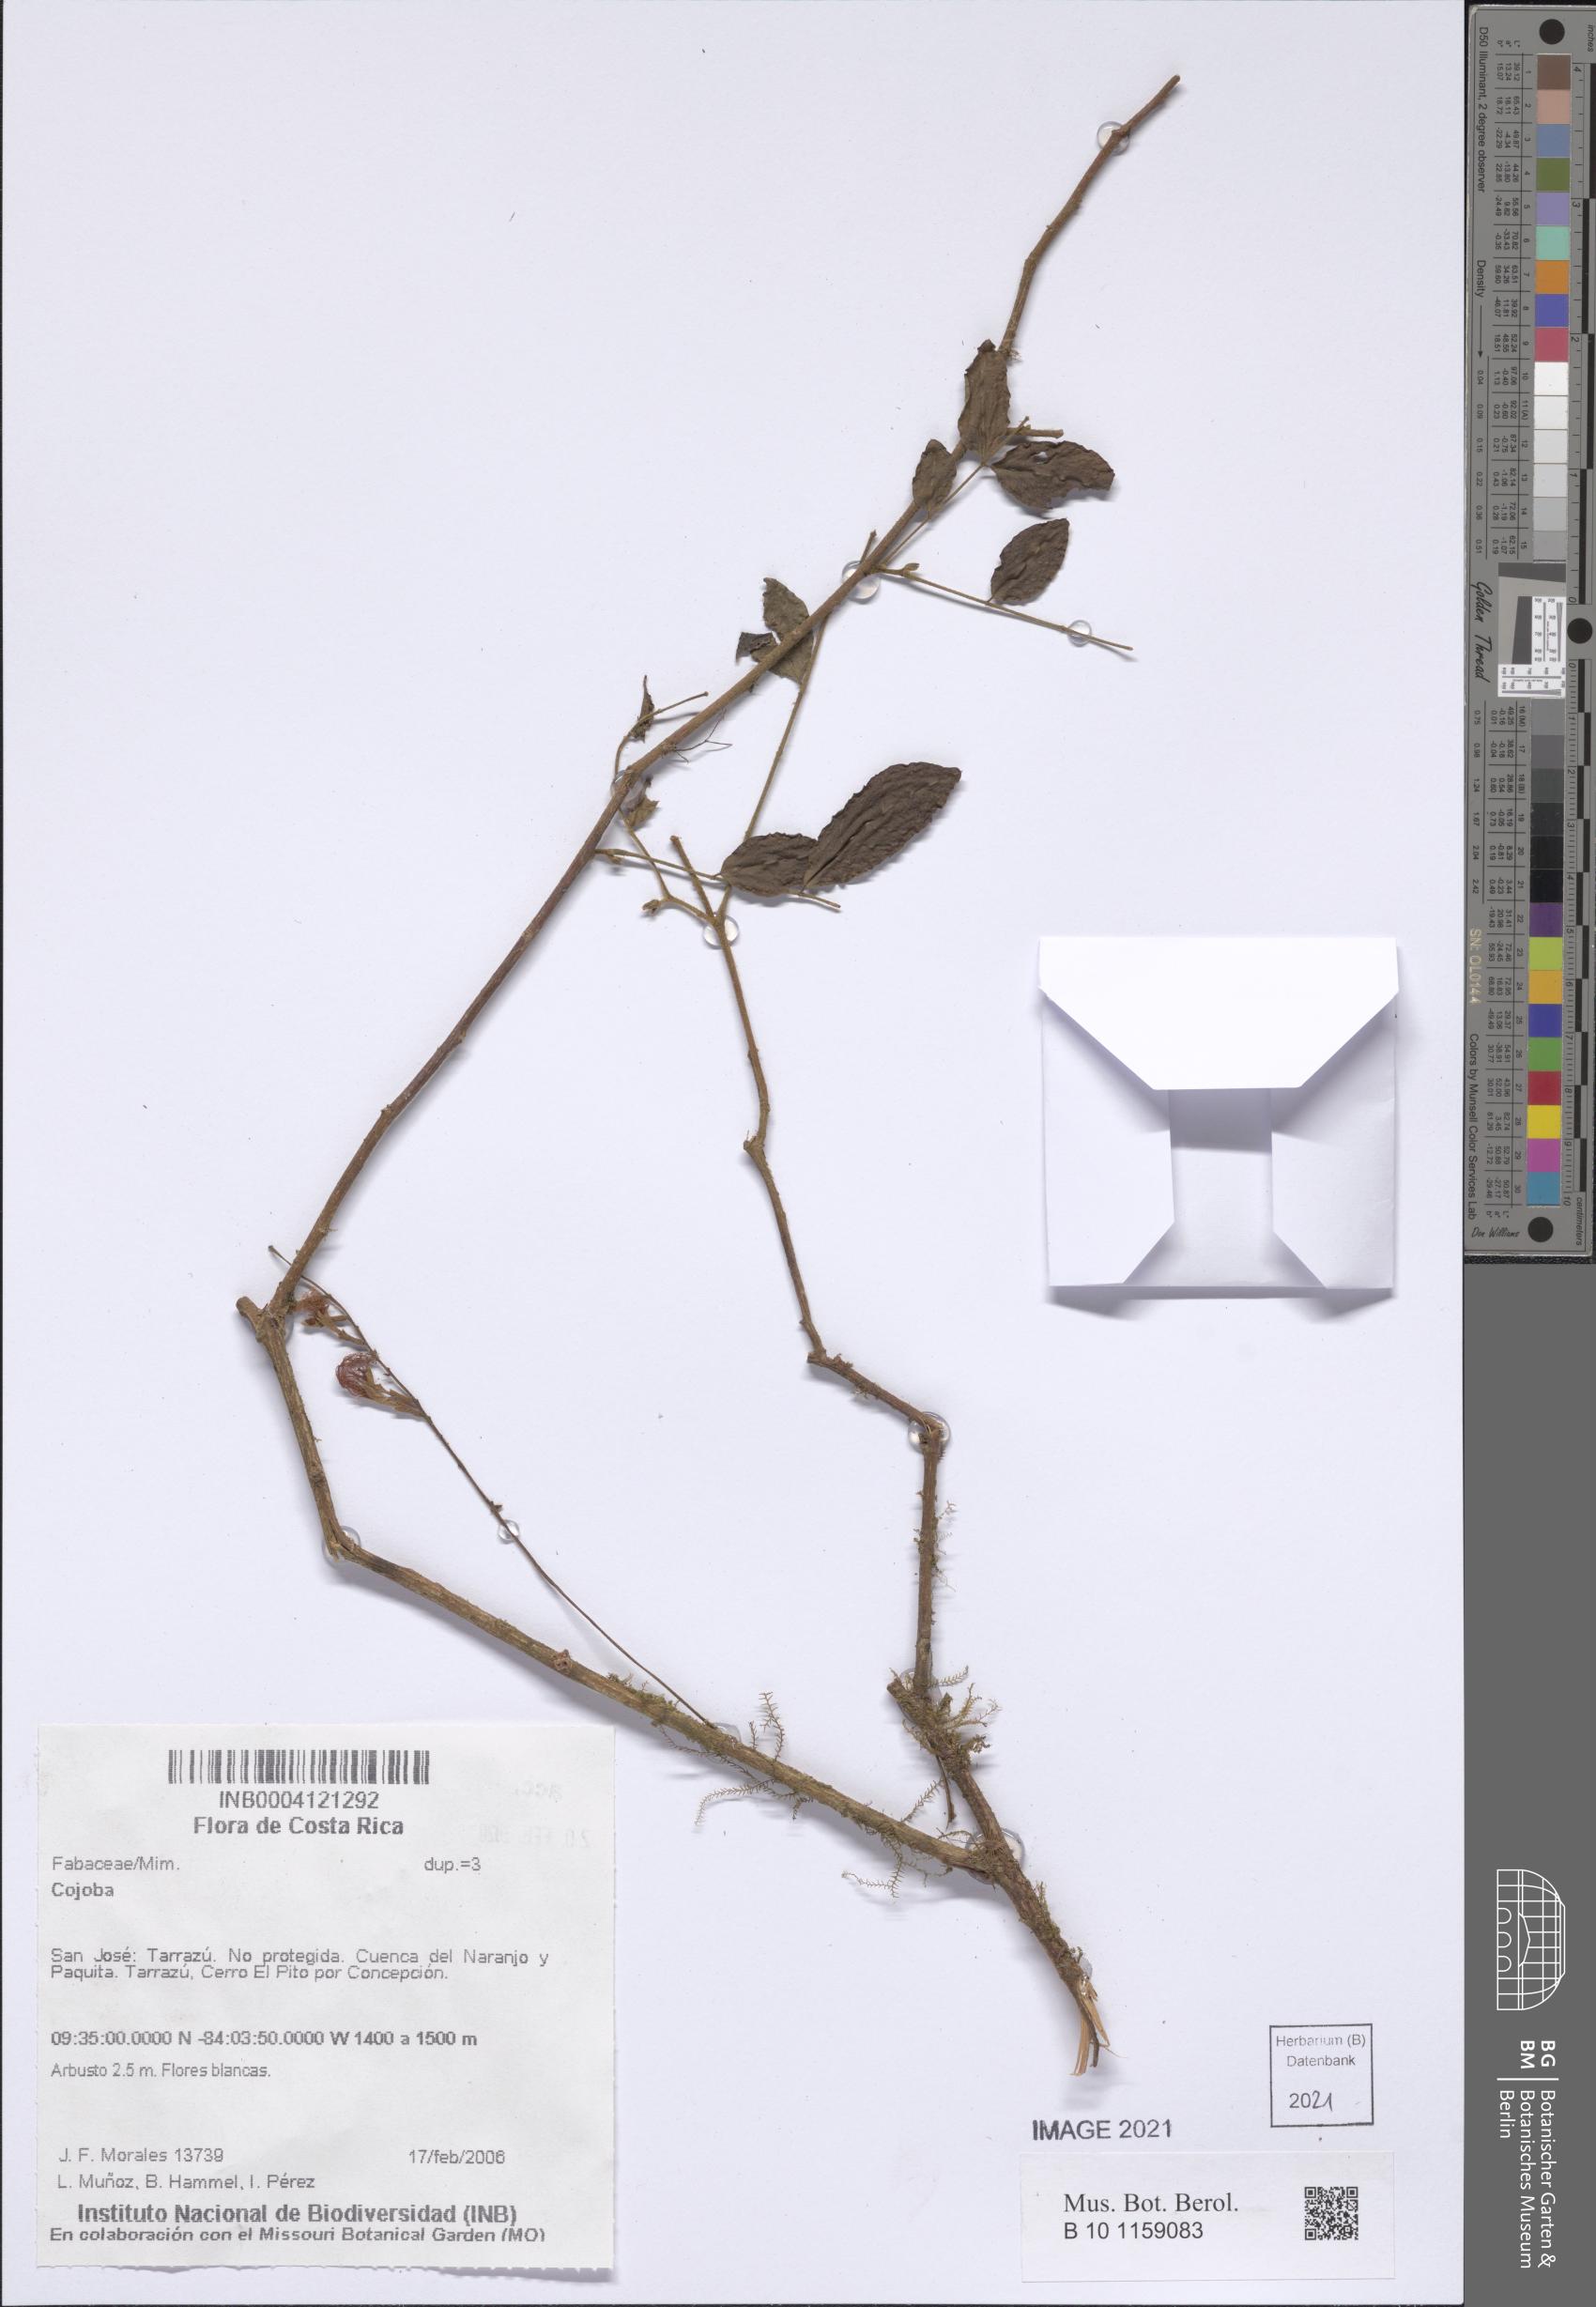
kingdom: Plantae
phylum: Tracheophyta
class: Magnoliopsida
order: Fabales
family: Fabaceae
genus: Cojoba
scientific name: Cojoba
